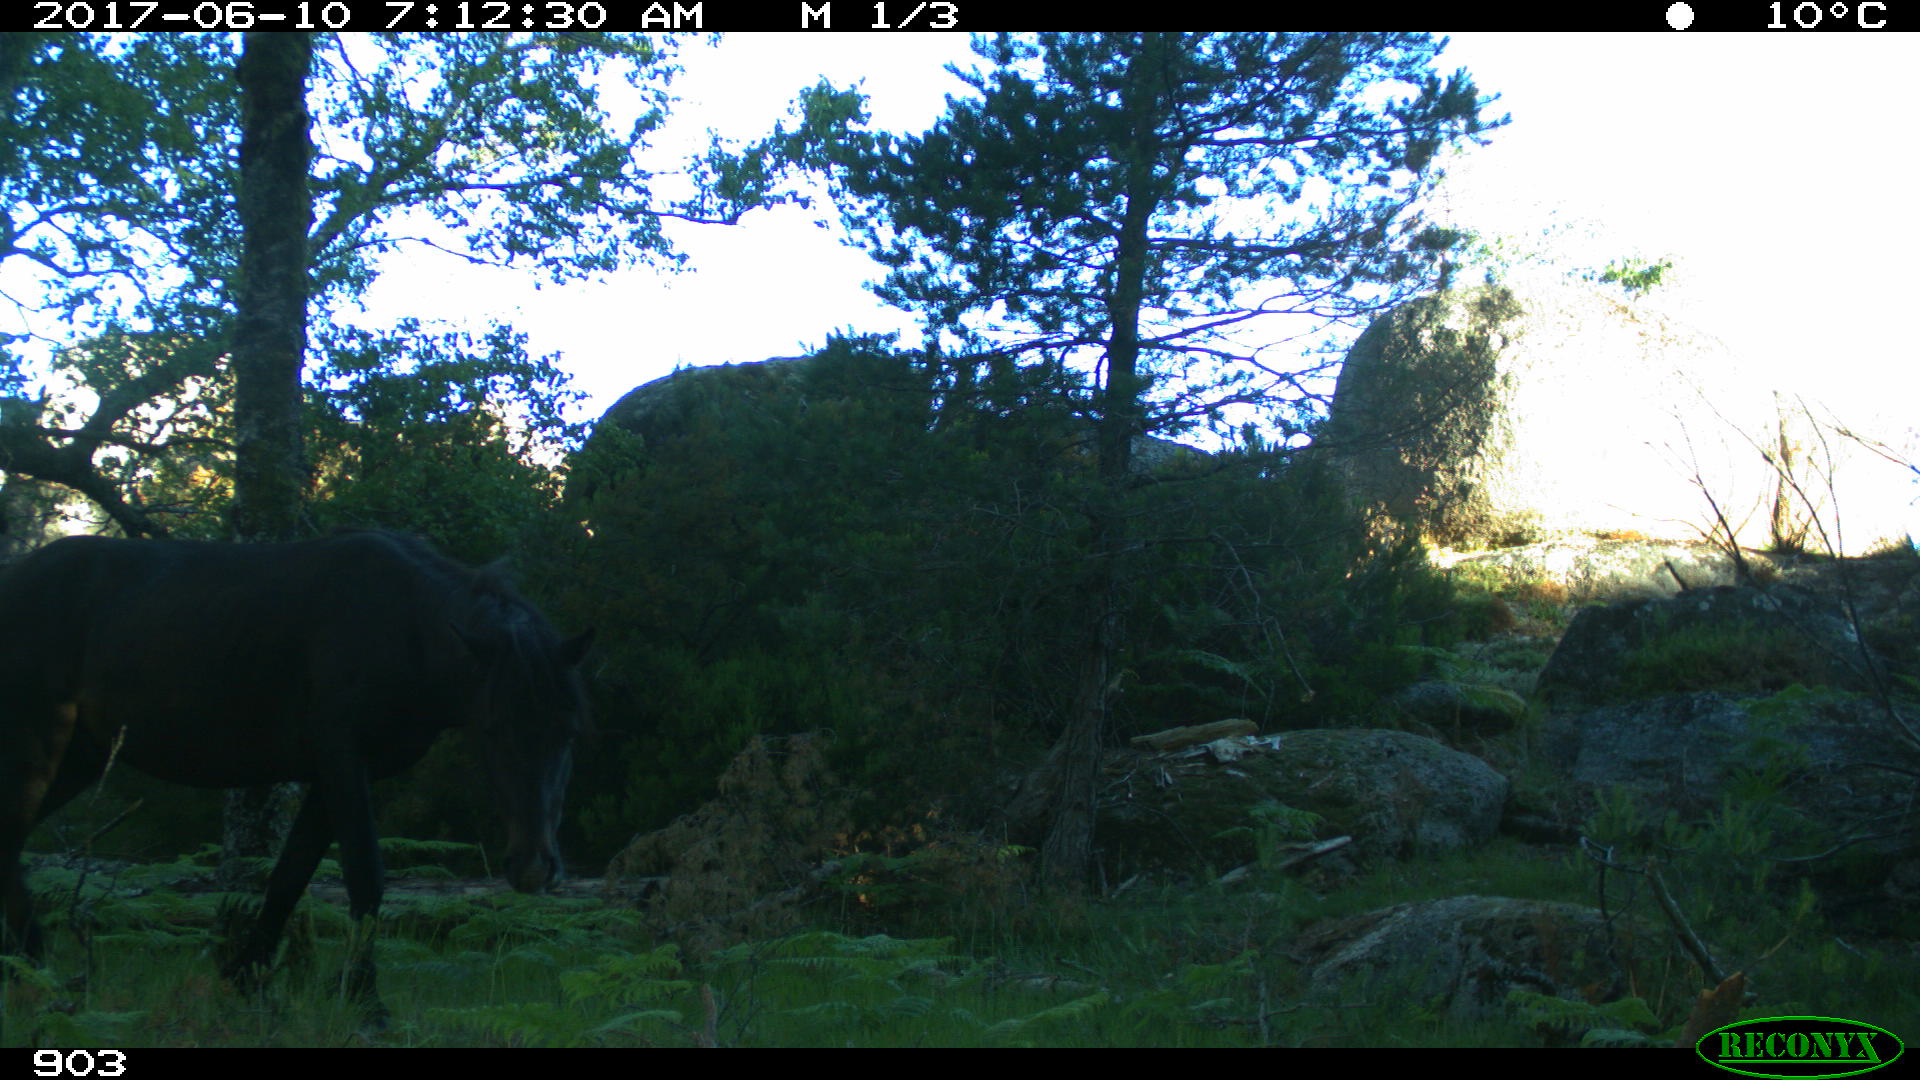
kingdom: Animalia
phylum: Chordata
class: Mammalia
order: Perissodactyla
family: Equidae
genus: Equus
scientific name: Equus caballus
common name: Horse
